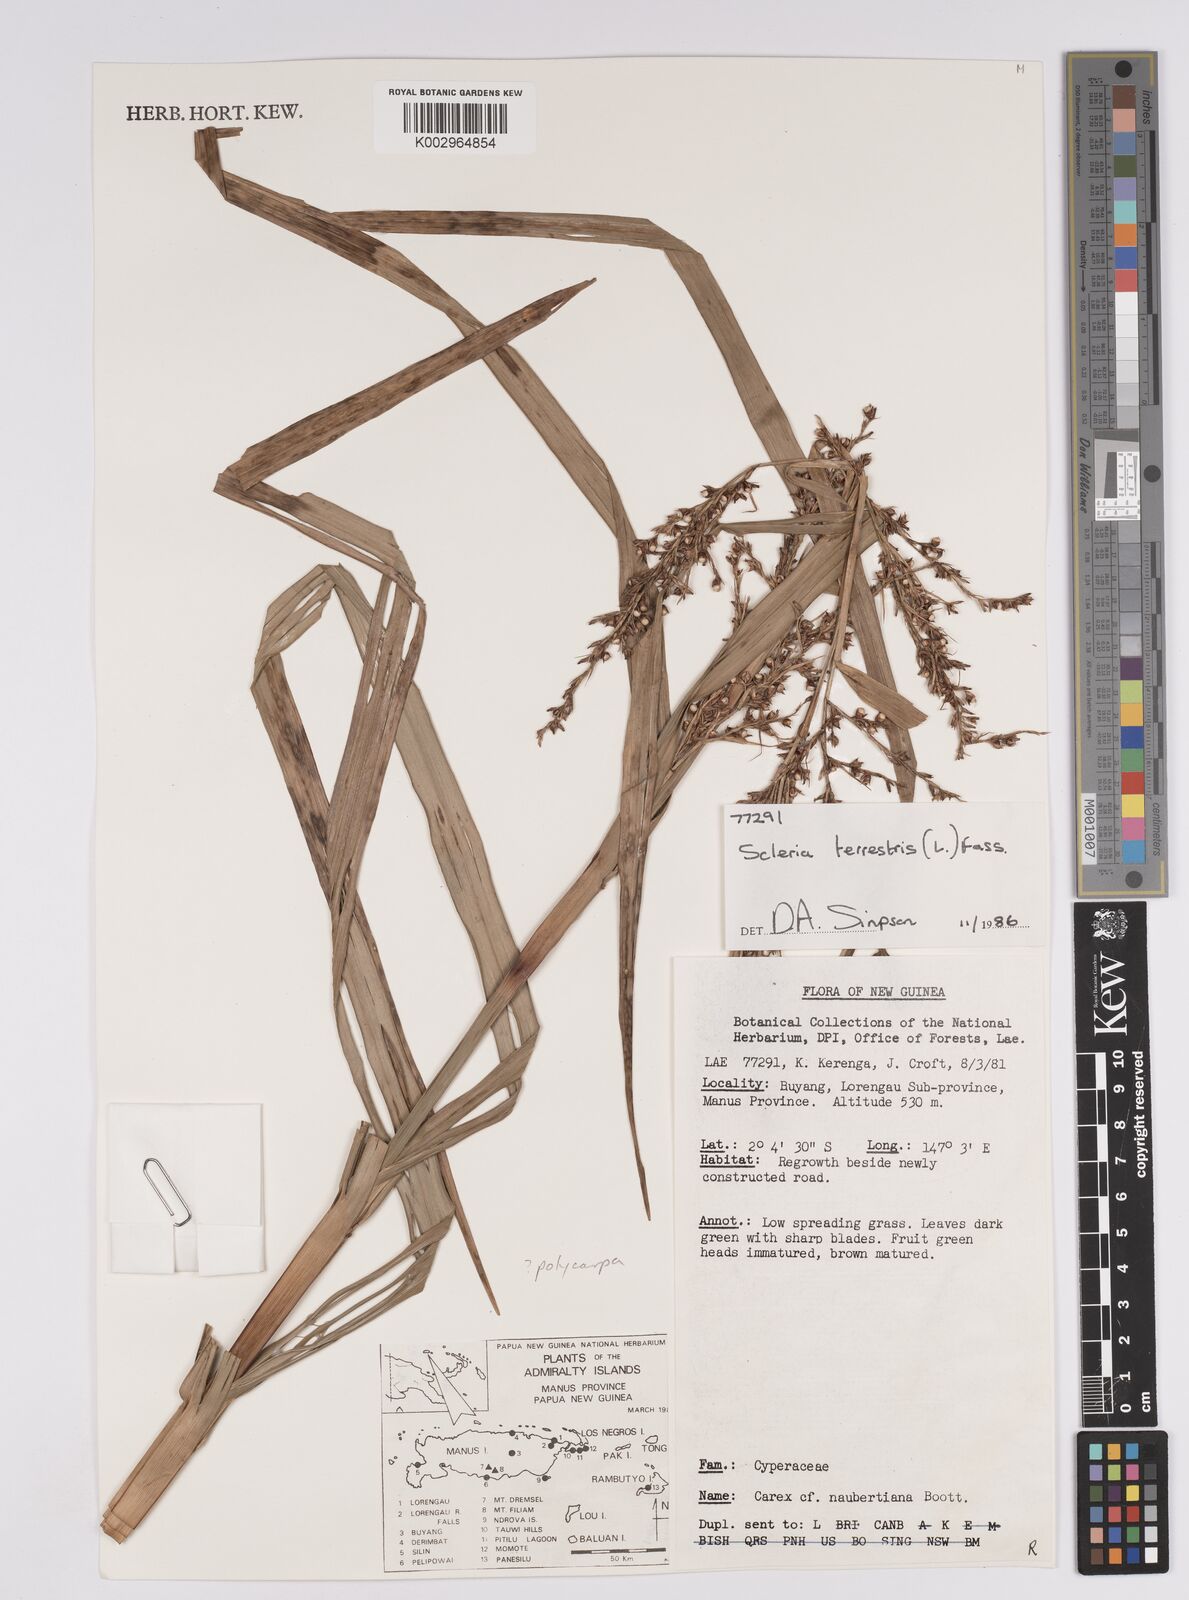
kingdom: Plantae
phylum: Tracheophyta
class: Liliopsida
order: Poales
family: Cyperaceae
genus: Scleria
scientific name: Scleria terrestris
